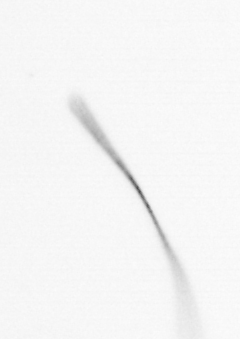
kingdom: Chromista
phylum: Ochrophyta
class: Bacillariophyceae
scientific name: Bacillariophyceae
